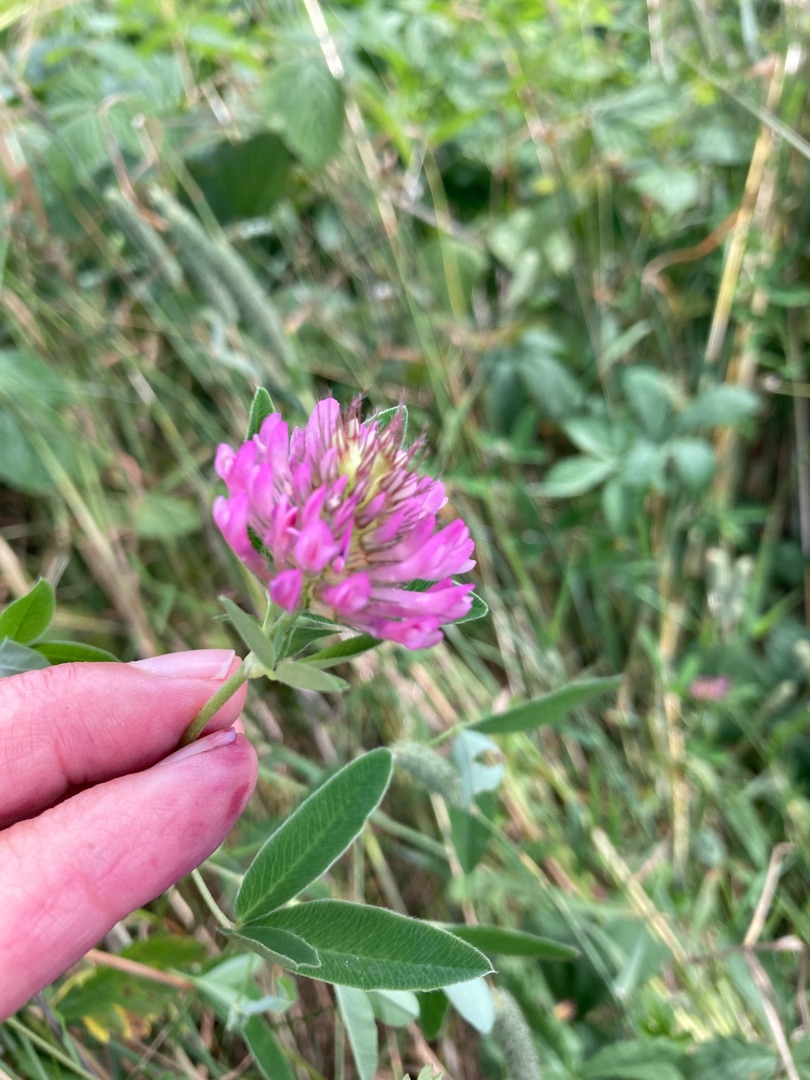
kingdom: Plantae
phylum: Tracheophyta
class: Magnoliopsida
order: Fabales
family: Fabaceae
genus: Trifolium
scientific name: Trifolium medium
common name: Bugtet kløver
